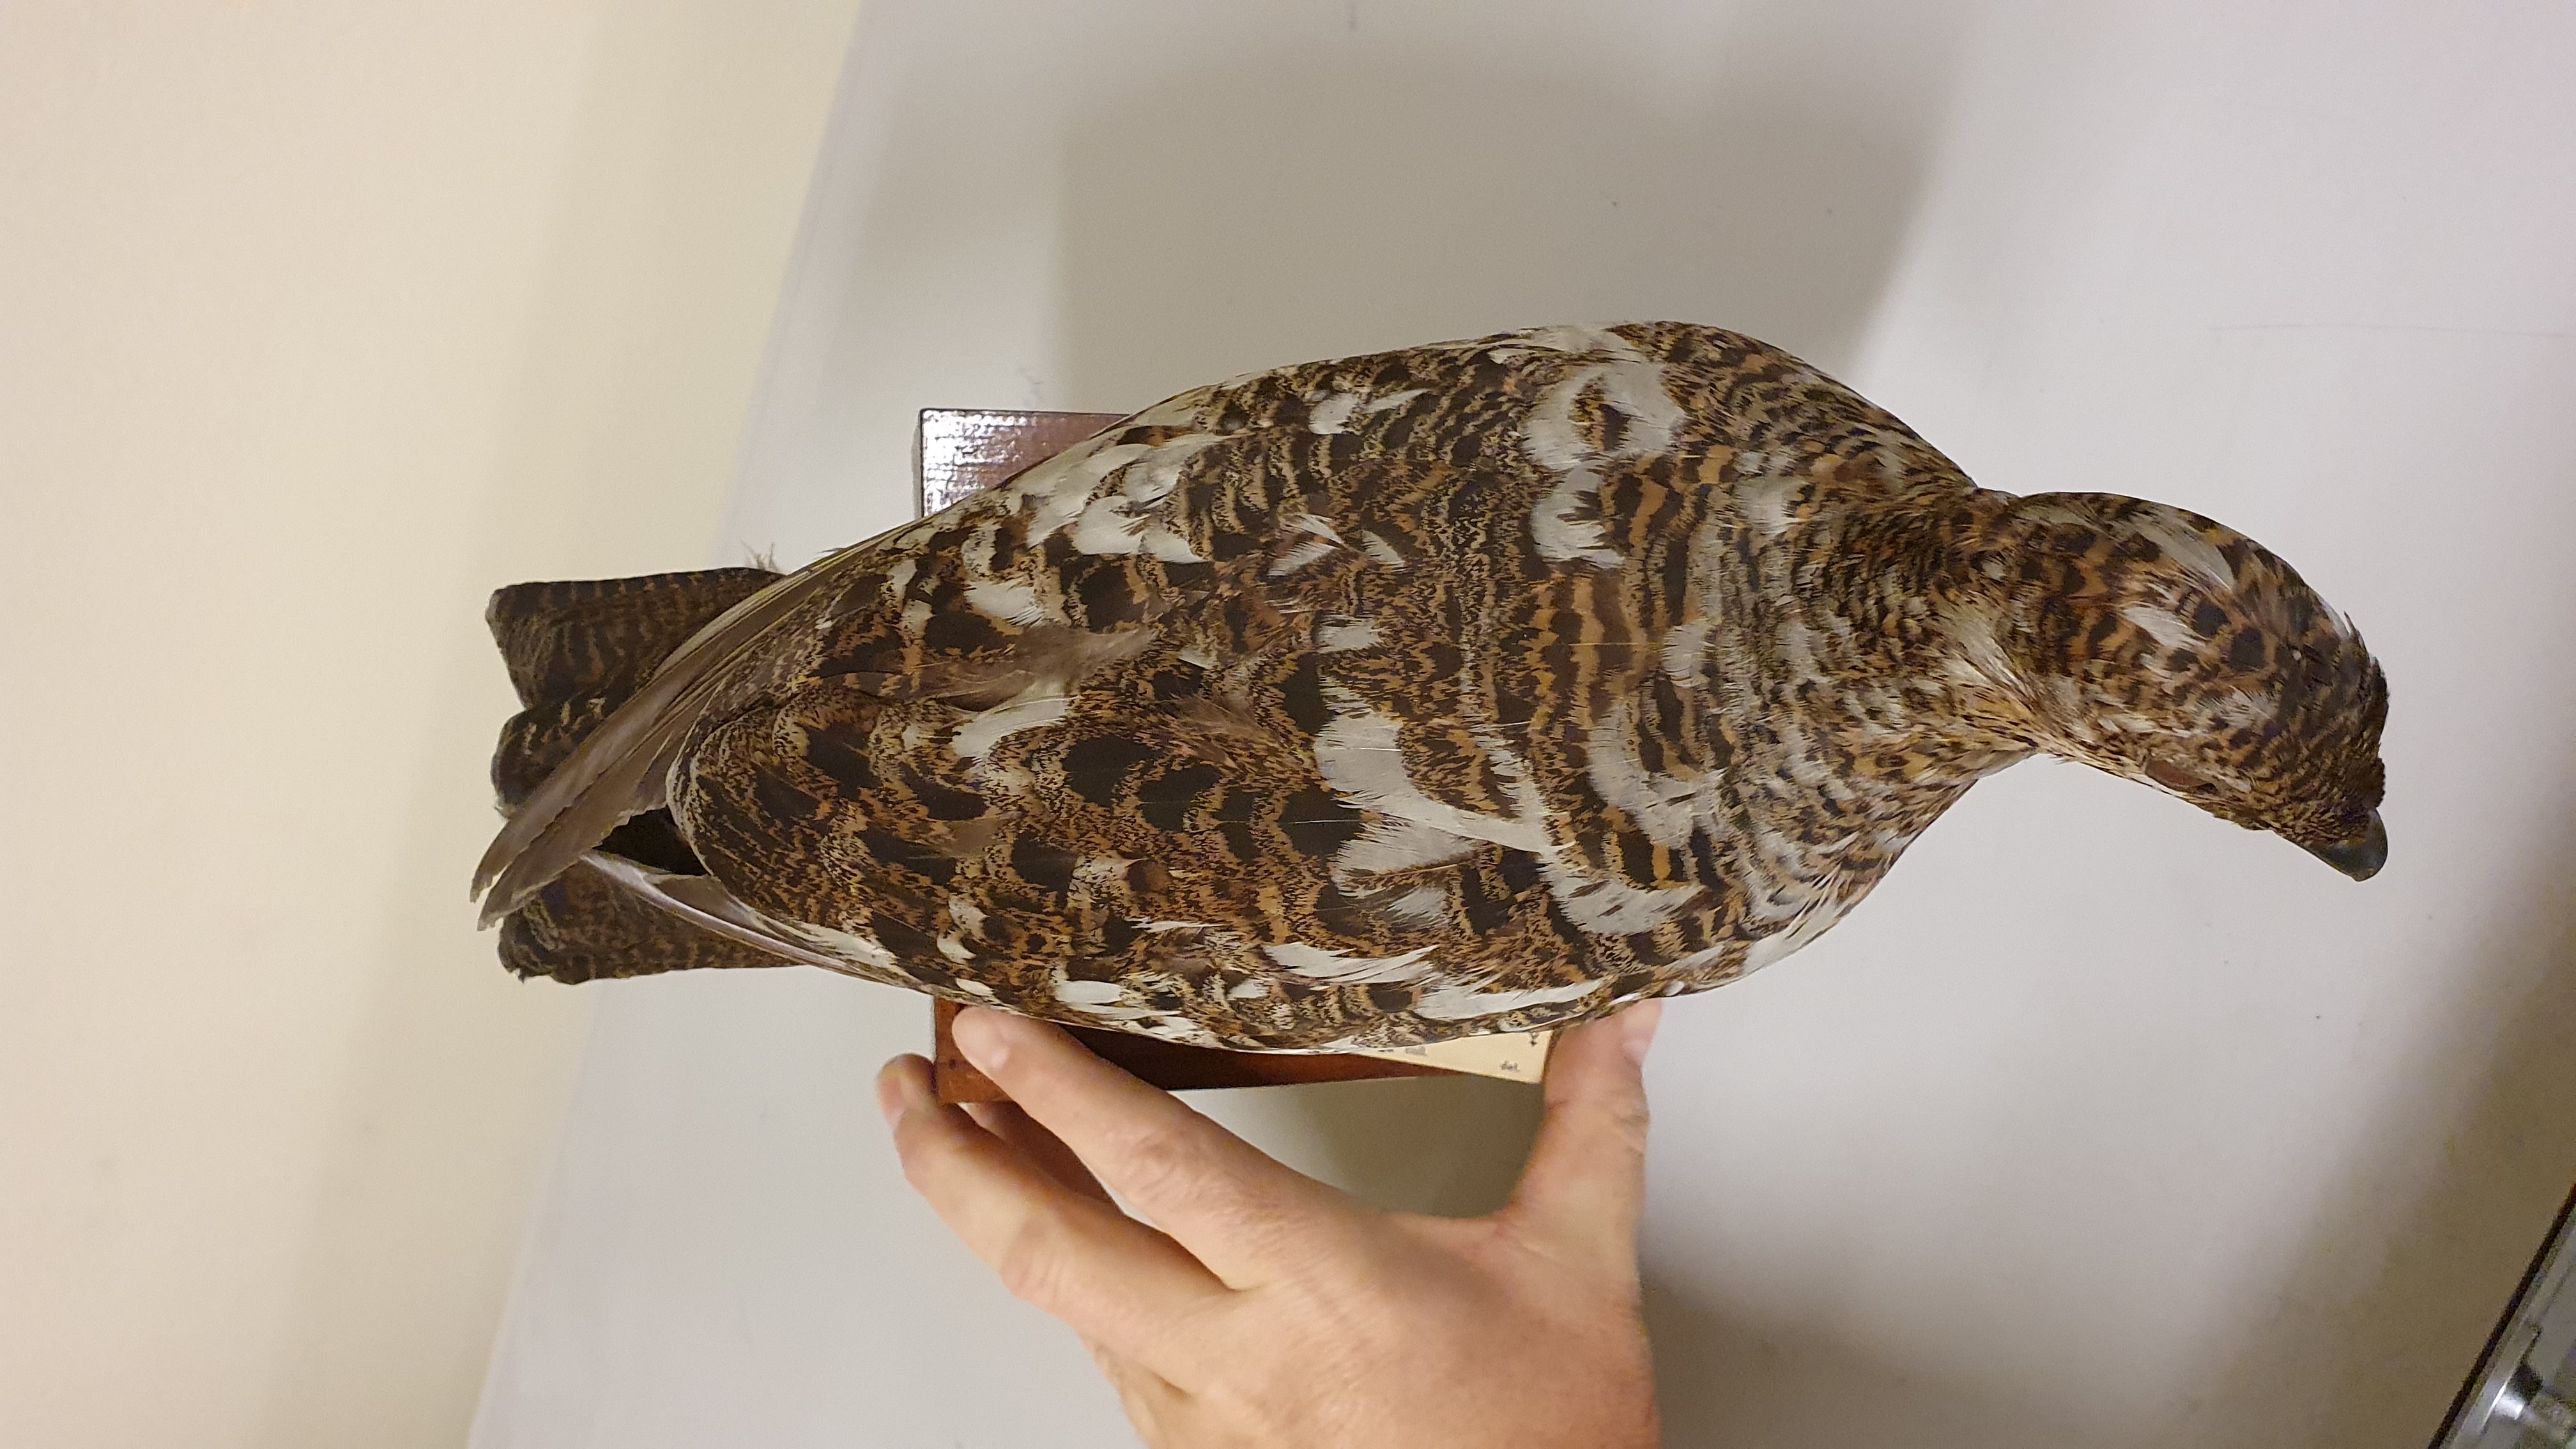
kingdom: Animalia
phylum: Chordata
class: Aves
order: Galliformes
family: Phasianidae
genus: Lyrurus
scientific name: Lyrurus tetrix
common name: Black grouse
